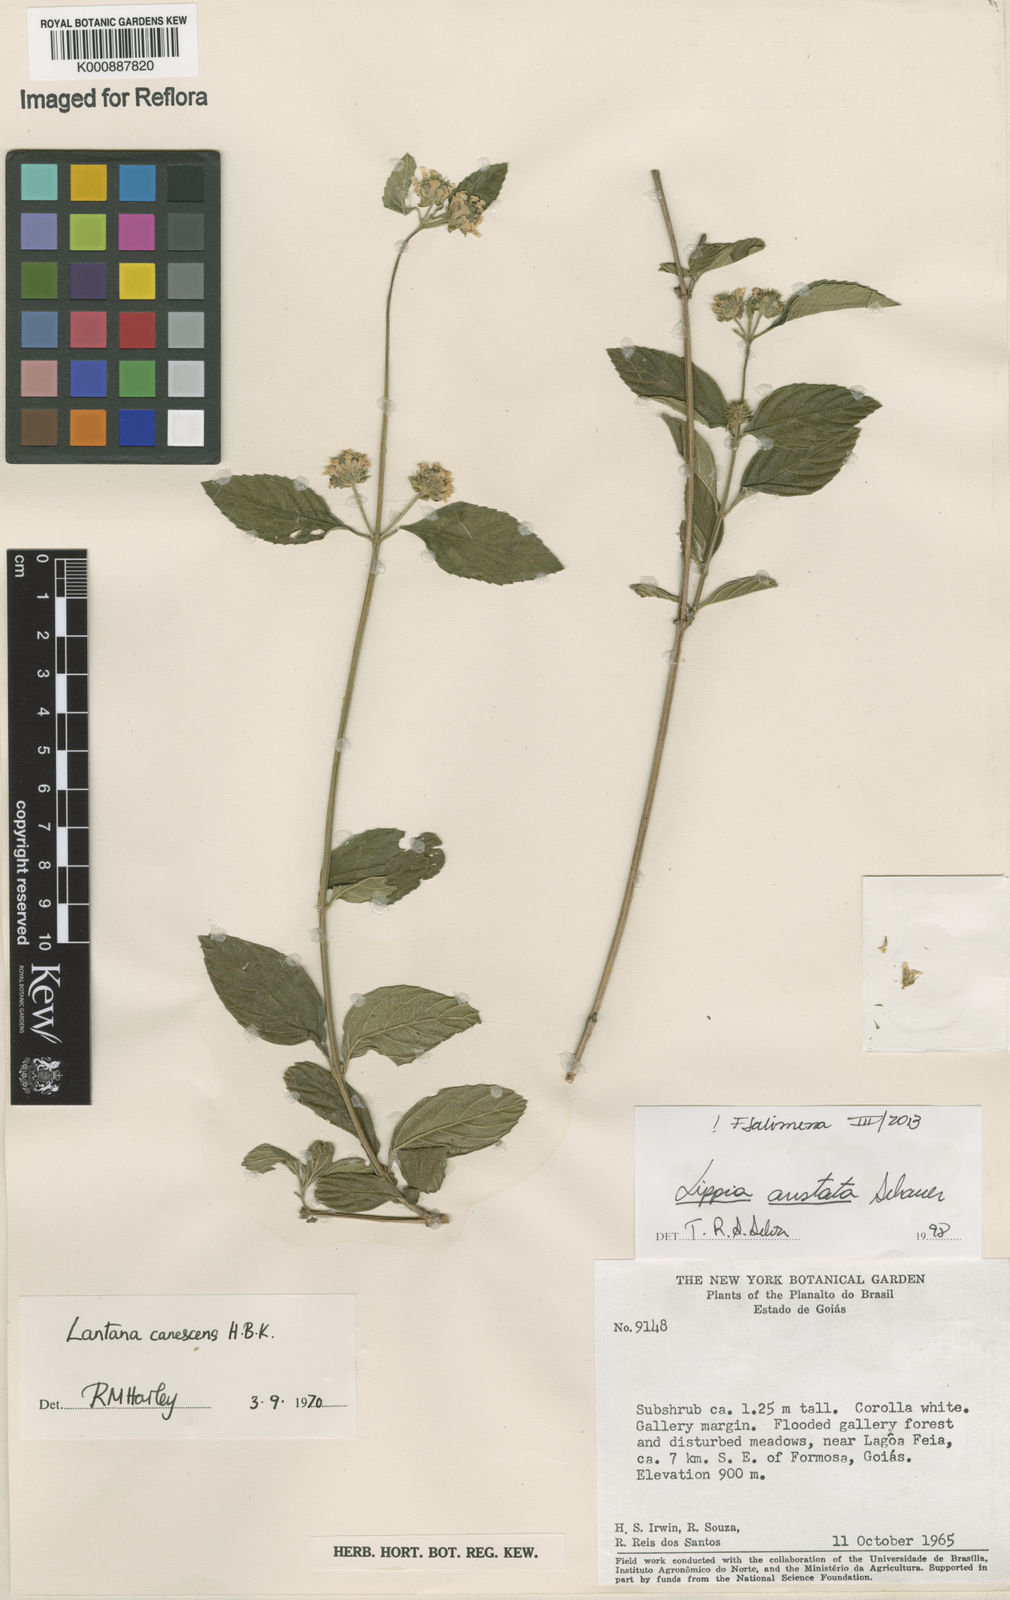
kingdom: Plantae
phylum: Tracheophyta
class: Magnoliopsida
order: Lamiales
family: Verbenaceae
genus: Lippia
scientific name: Lippia aristata
